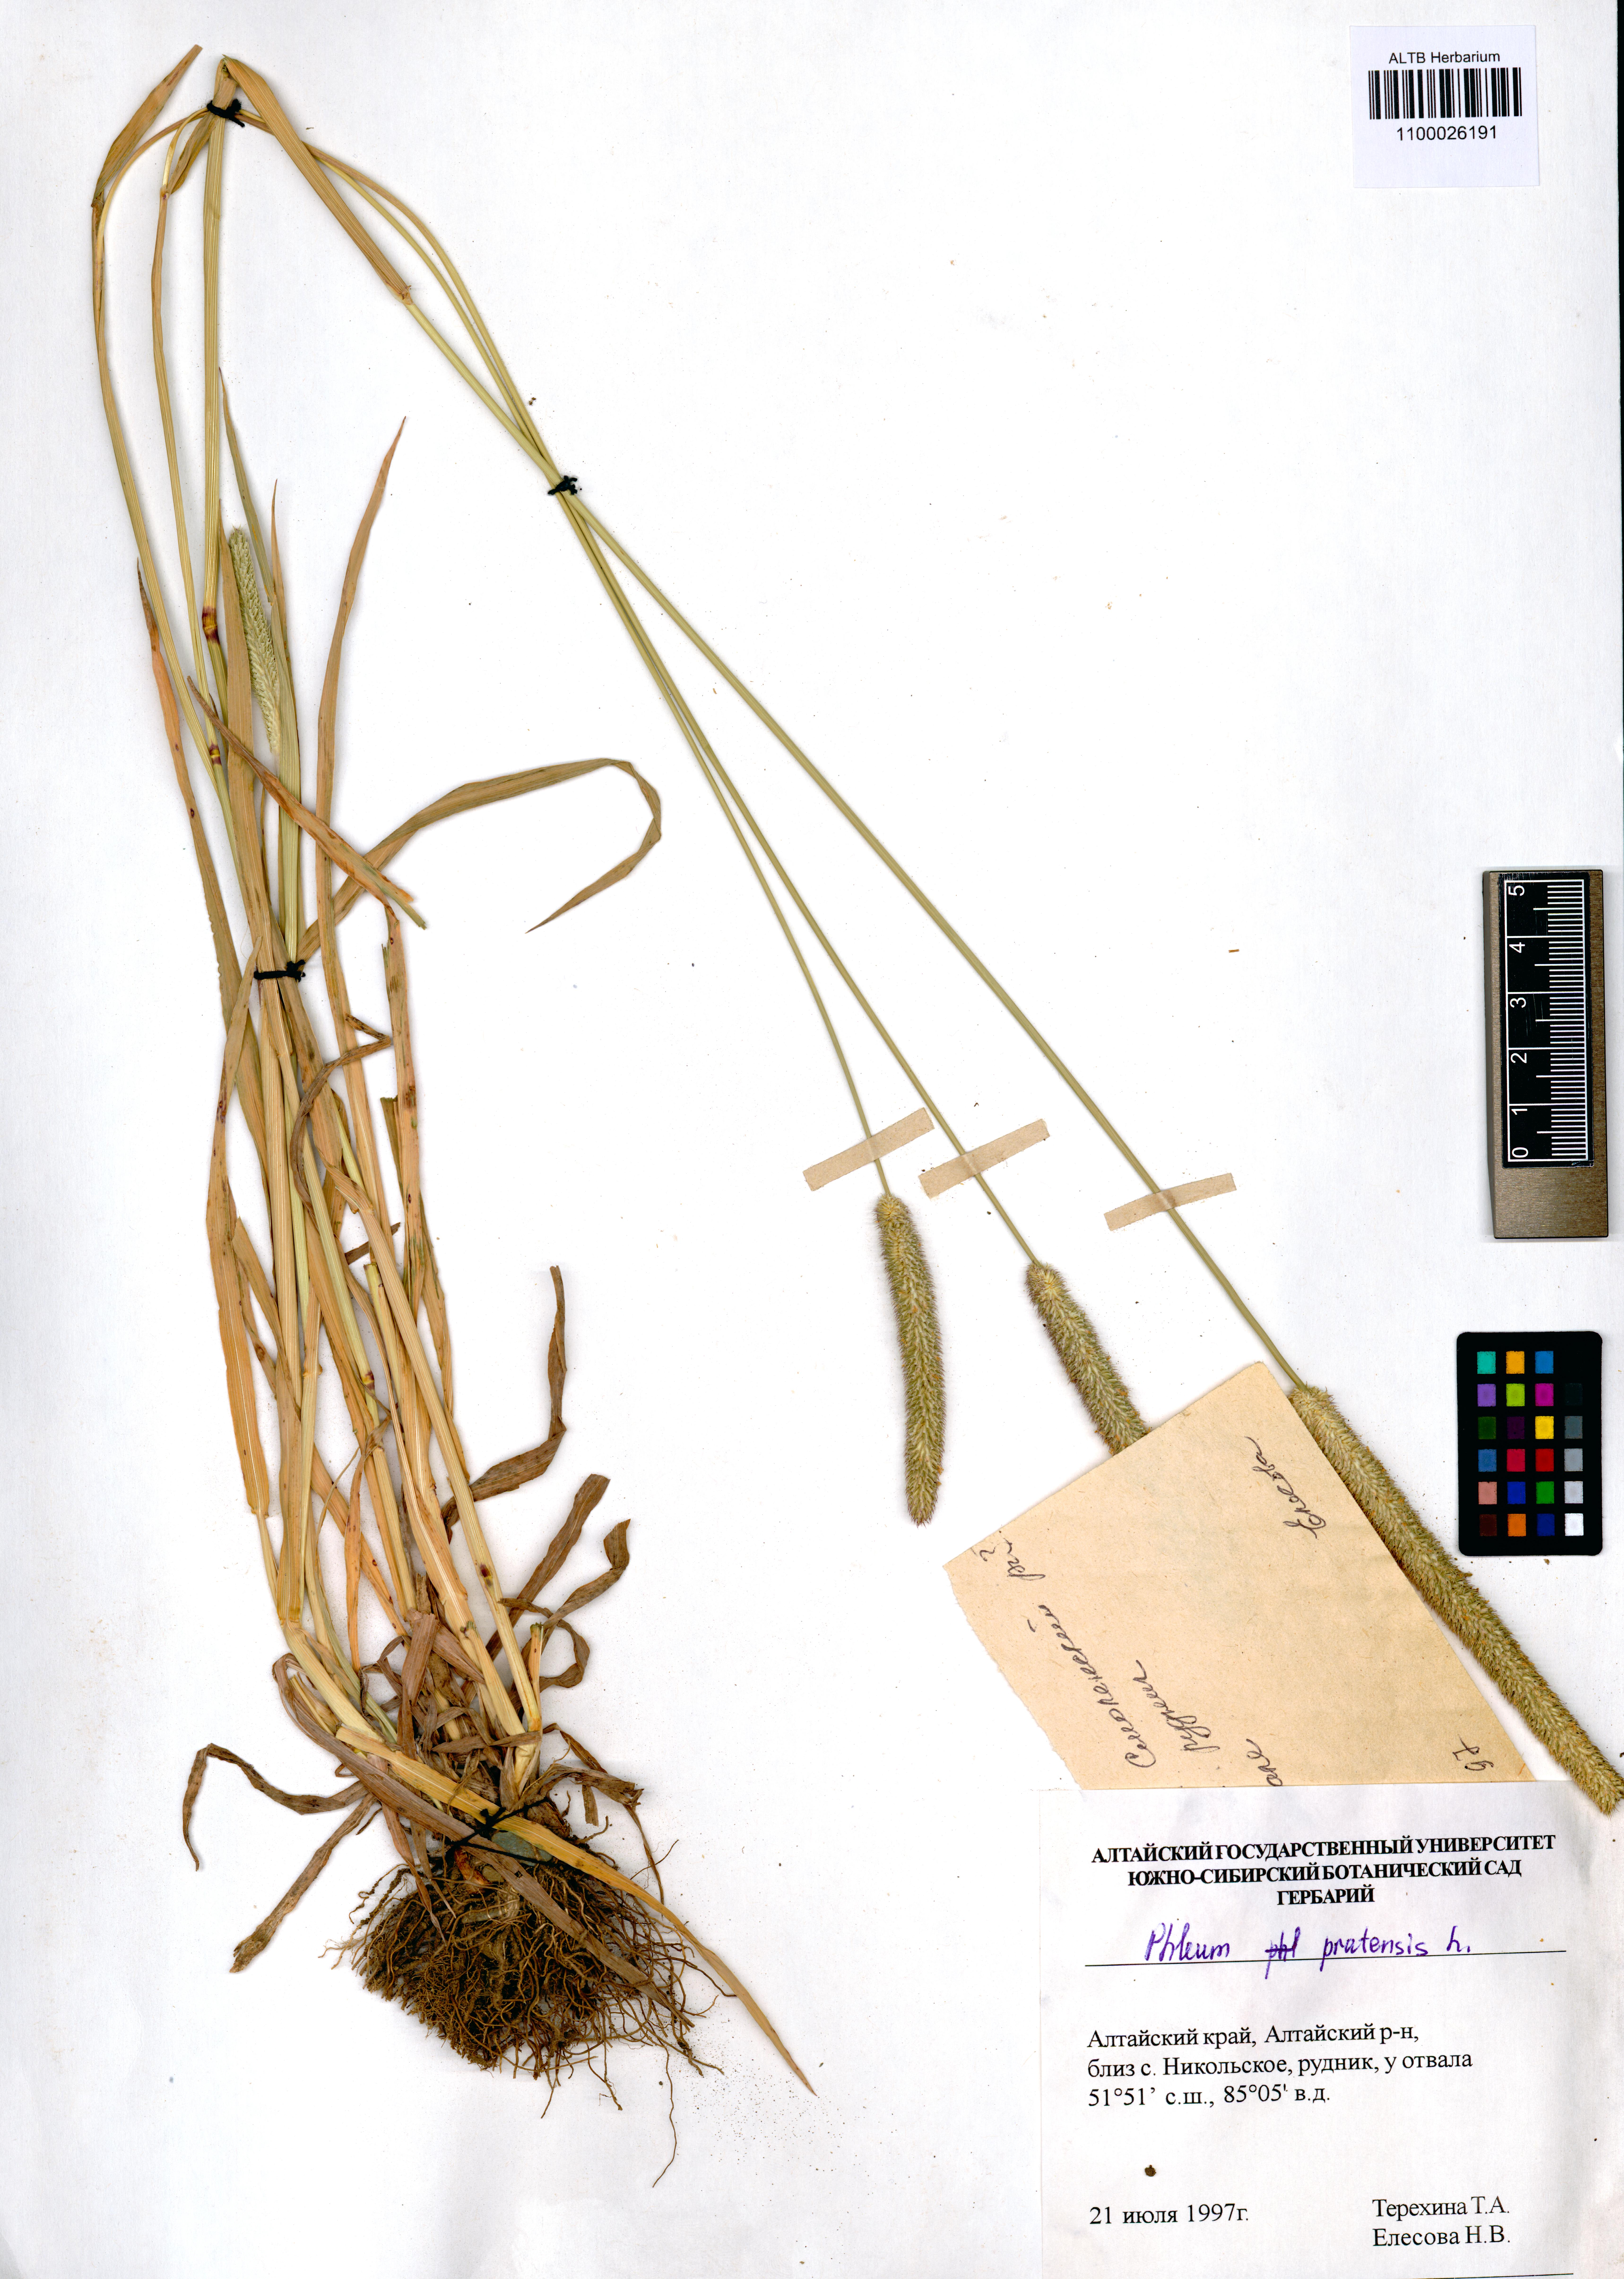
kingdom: Plantae
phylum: Tracheophyta
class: Liliopsida
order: Poales
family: Poaceae
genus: Phleum
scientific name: Phleum pratense
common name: Timothy grass
